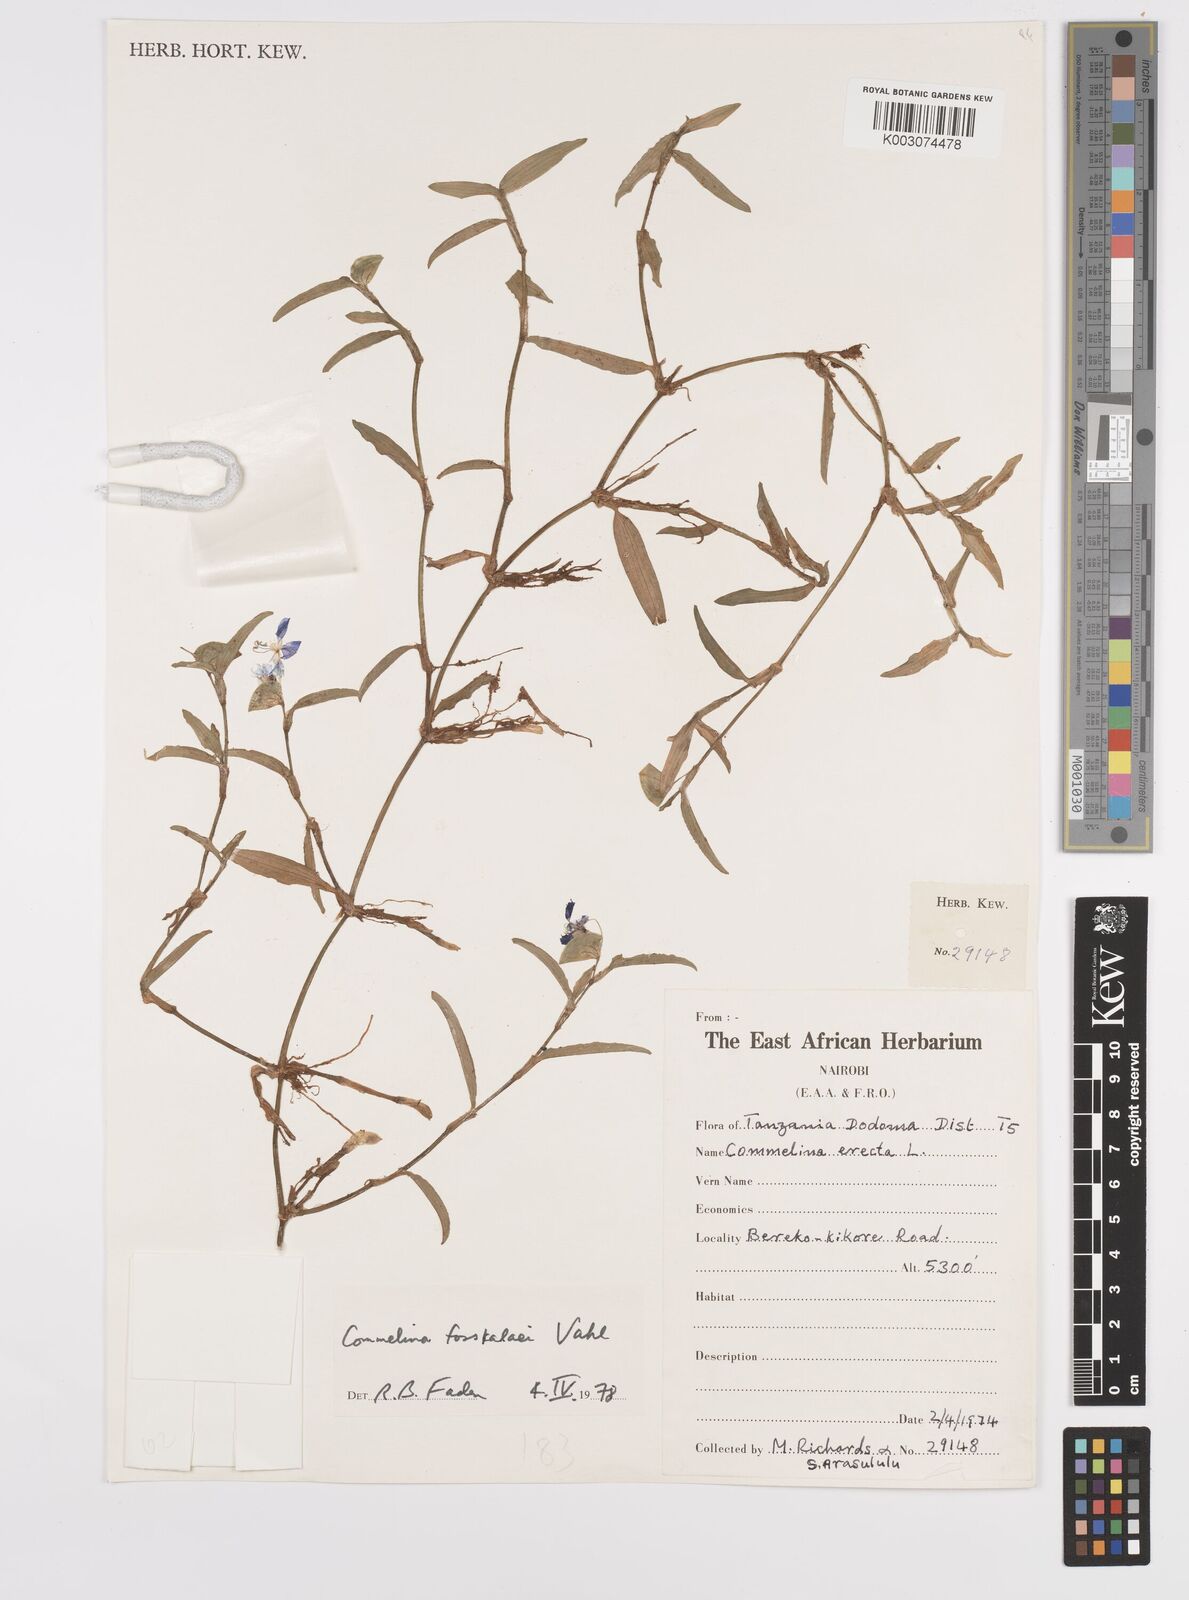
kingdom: Plantae
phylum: Tracheophyta
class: Liliopsida
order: Commelinales
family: Commelinaceae
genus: Commelina
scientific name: Commelina
